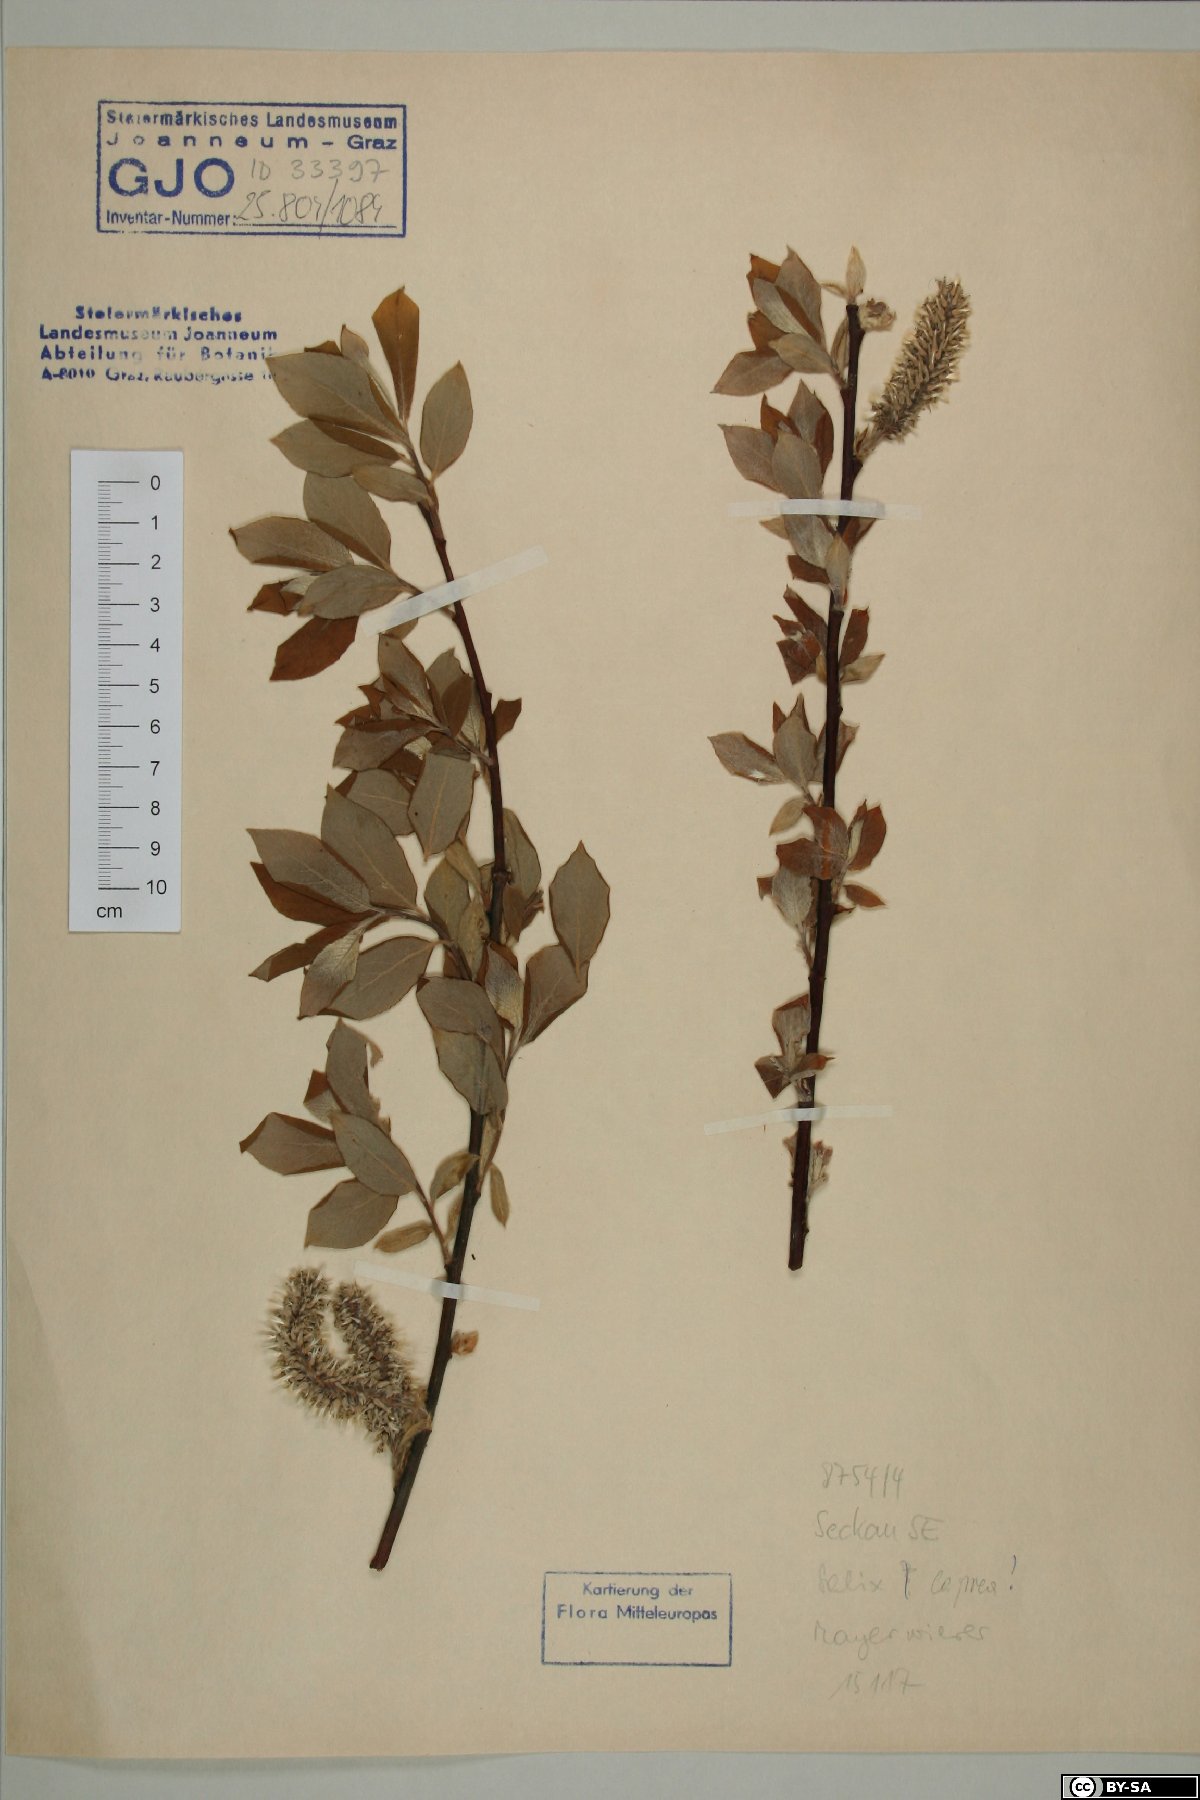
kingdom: Plantae
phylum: Tracheophyta
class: Magnoliopsida
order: Malpighiales
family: Salicaceae
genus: Salix
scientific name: Salix caprea
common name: Goat willow
